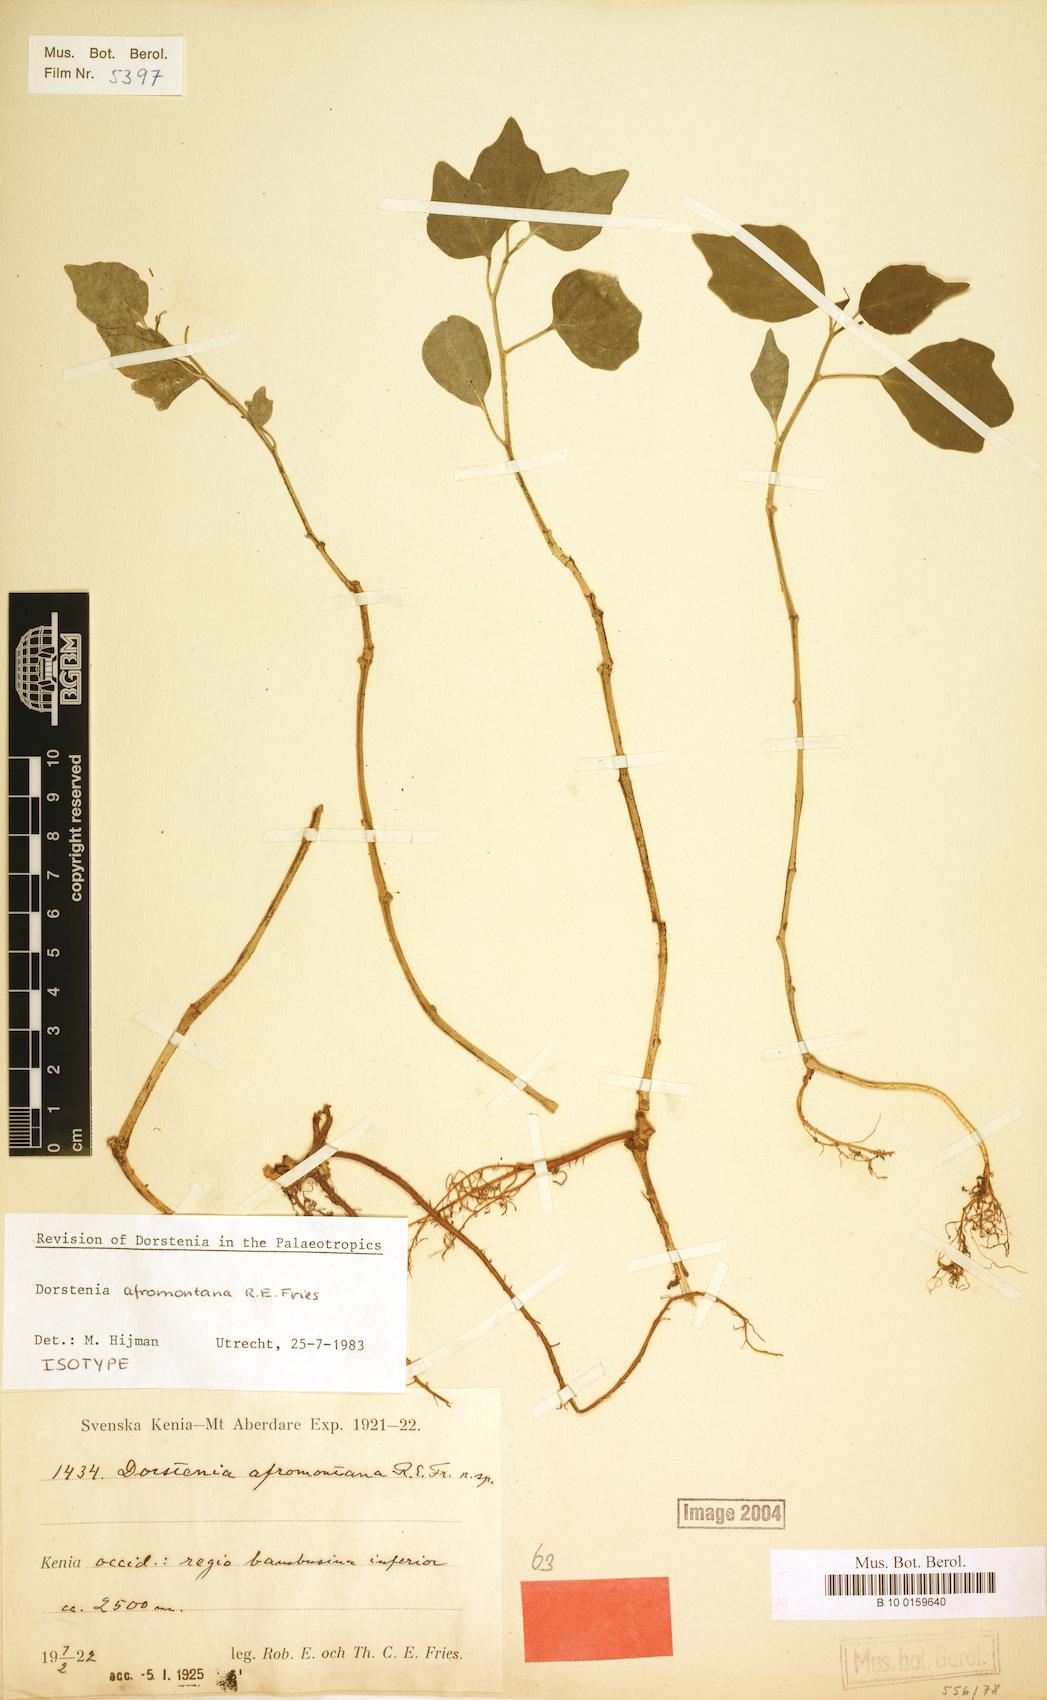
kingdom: Plantae
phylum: Tracheophyta
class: Magnoliopsida
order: Rosales
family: Moraceae
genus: Dorstenia
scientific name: Dorstenia afromontana
